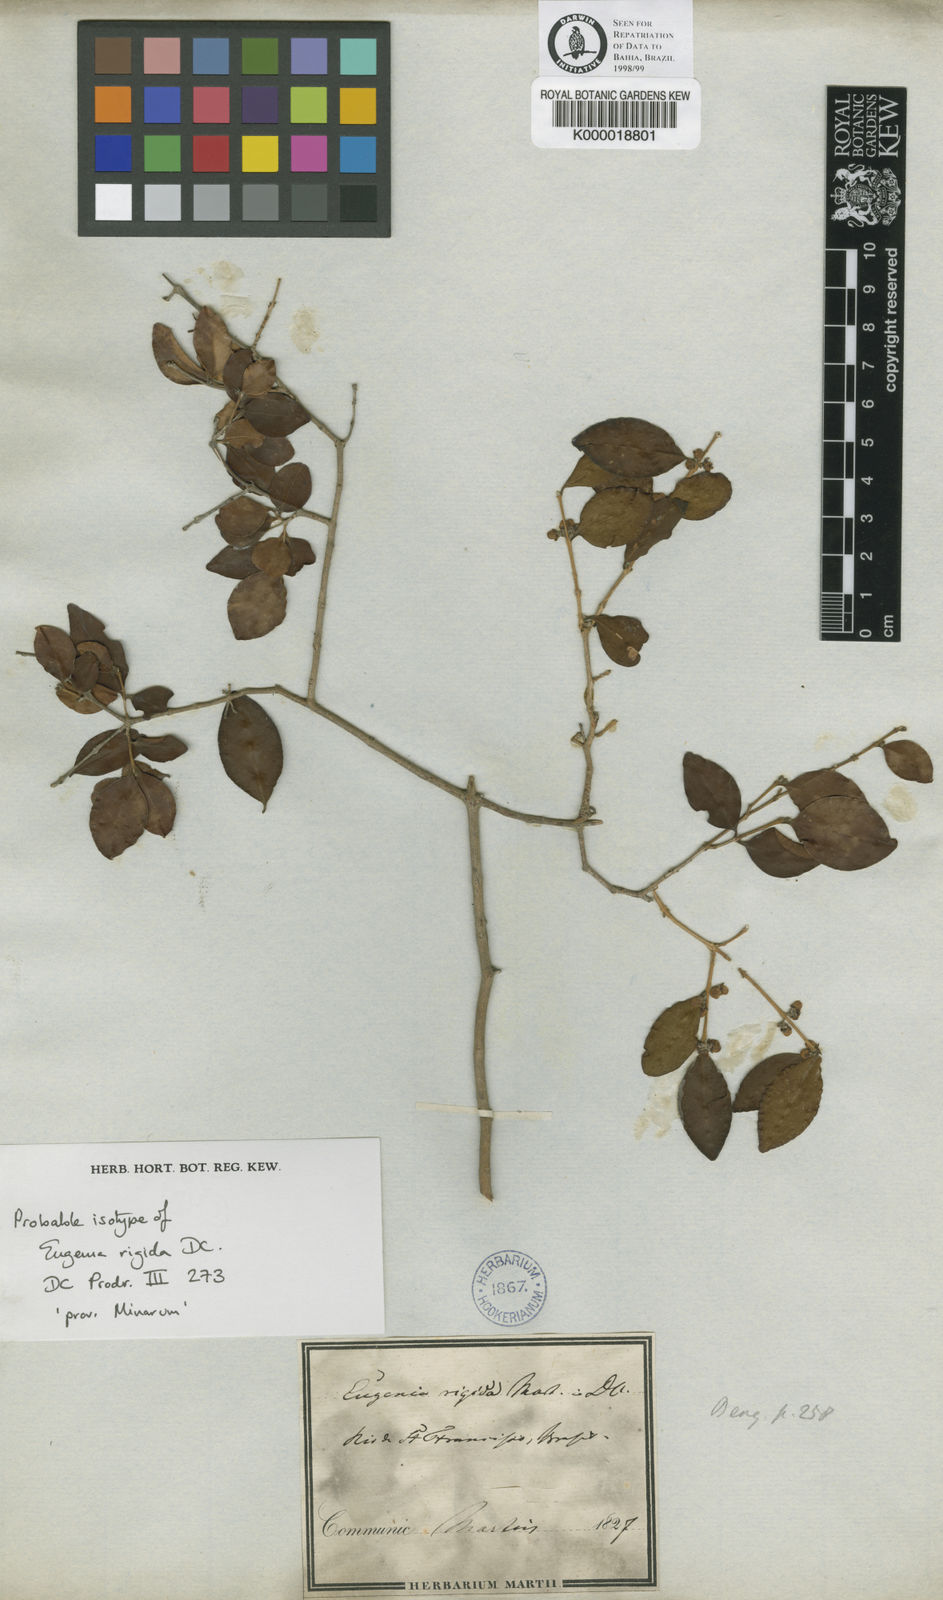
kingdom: Plantae
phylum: Tracheophyta
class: Magnoliopsida
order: Myrtales
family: Myrtaceae
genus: Eugenia
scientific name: Eugenia rigida
